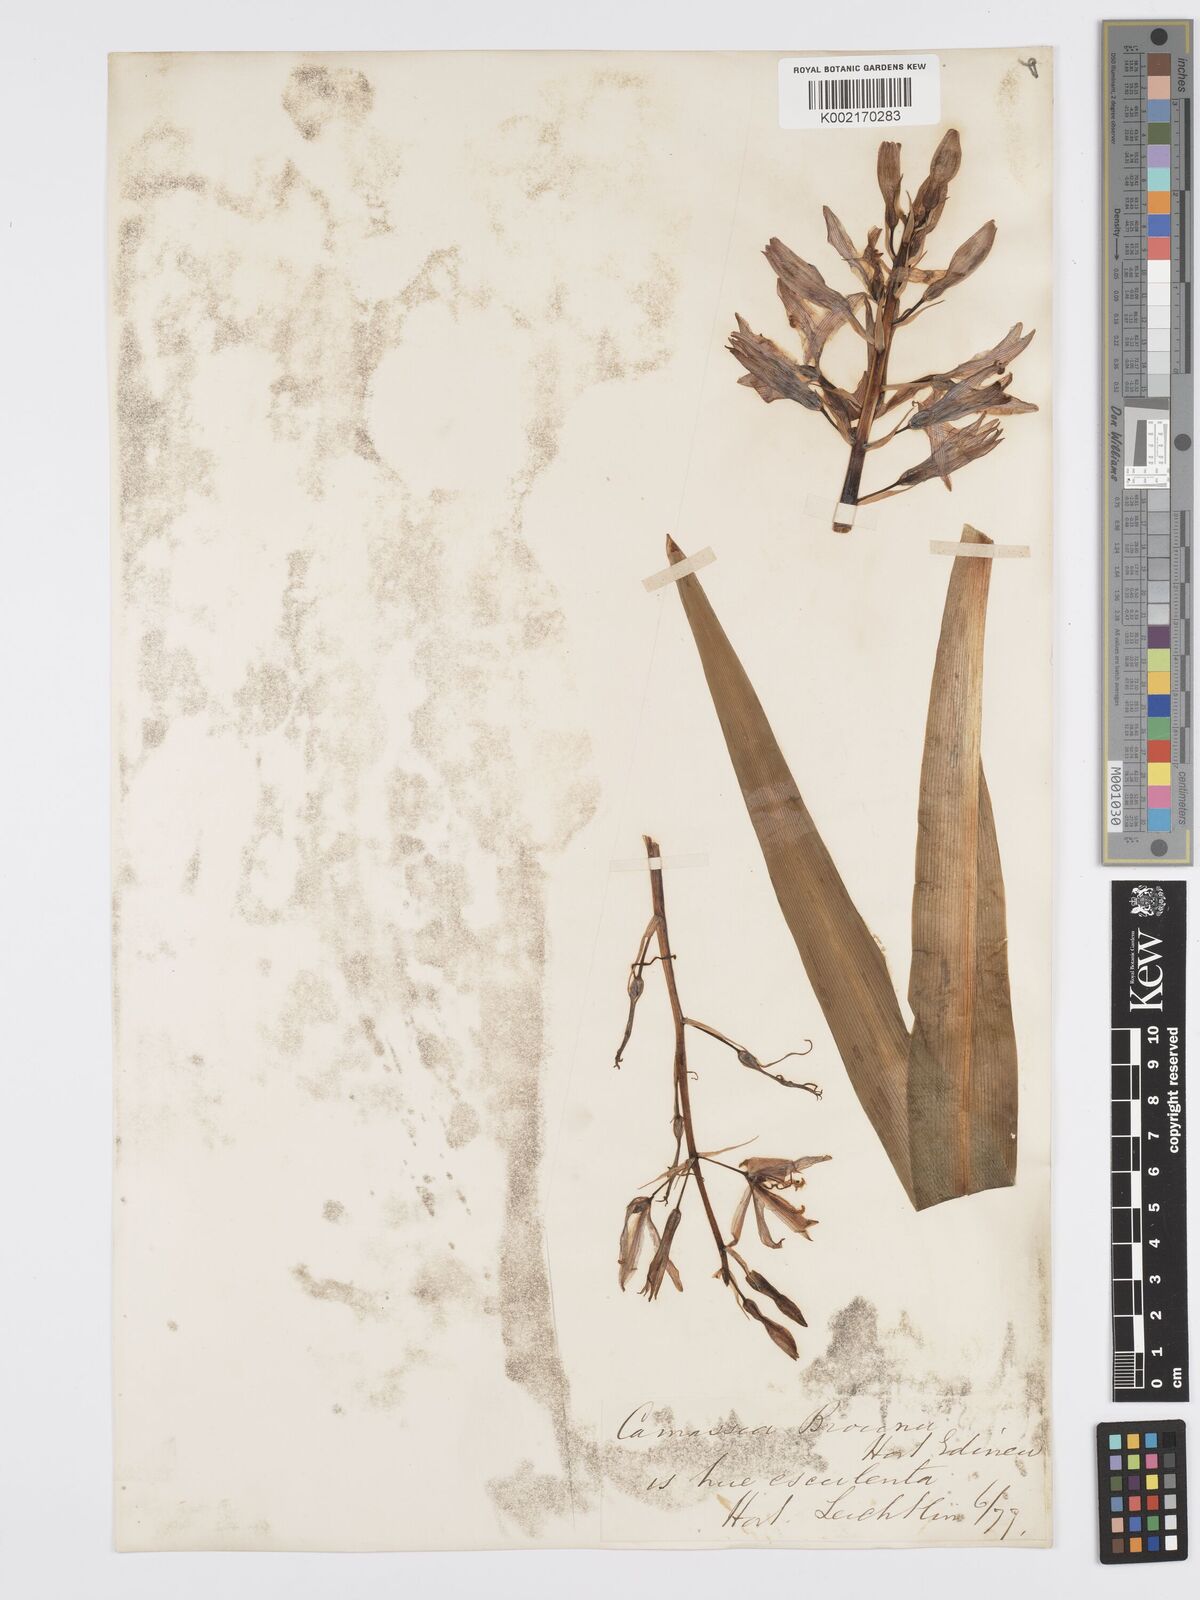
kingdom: Plantae
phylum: Tracheophyta
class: Liliopsida
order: Asparagales
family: Asparagaceae
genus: Camassia
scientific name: Camassia leichtlinii
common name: Leichtlin's camas
